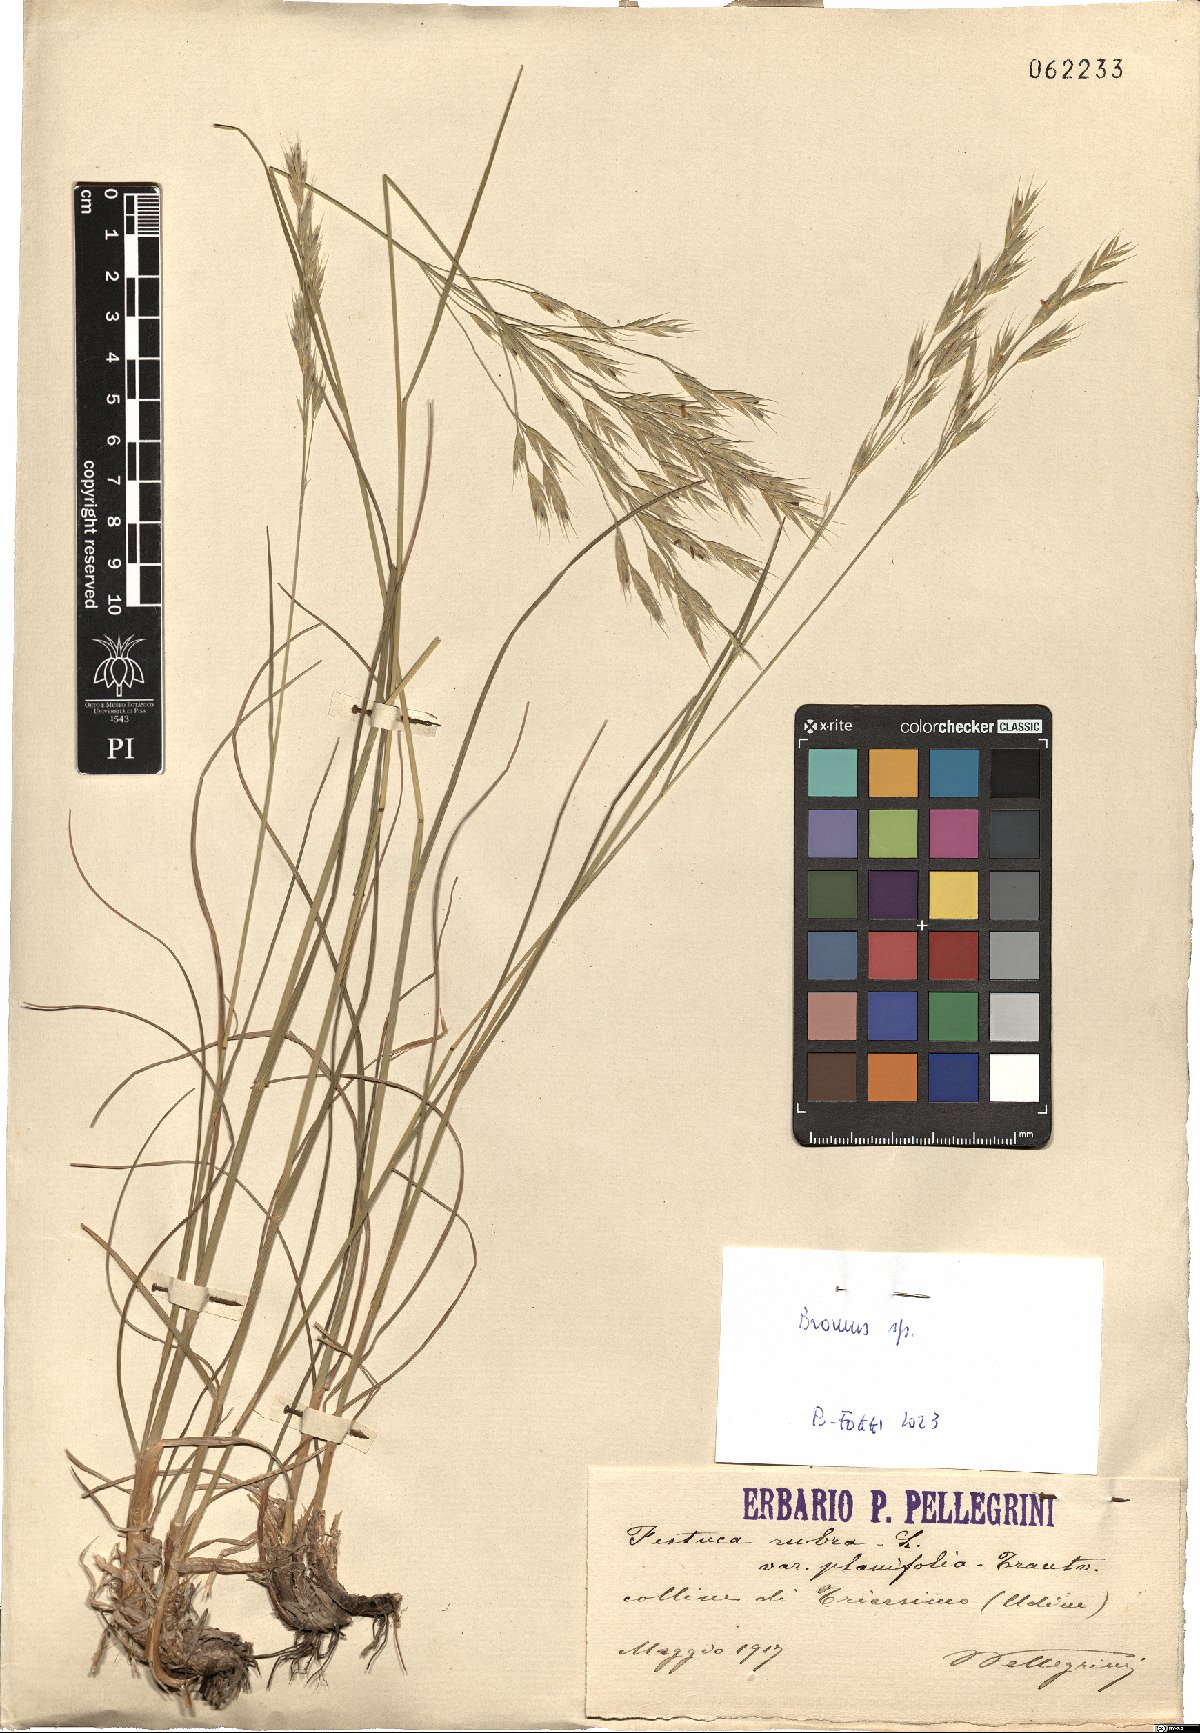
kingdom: Plantae
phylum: Tracheophyta
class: Liliopsida
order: Poales
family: Poaceae
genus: Bromus
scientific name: Bromus
